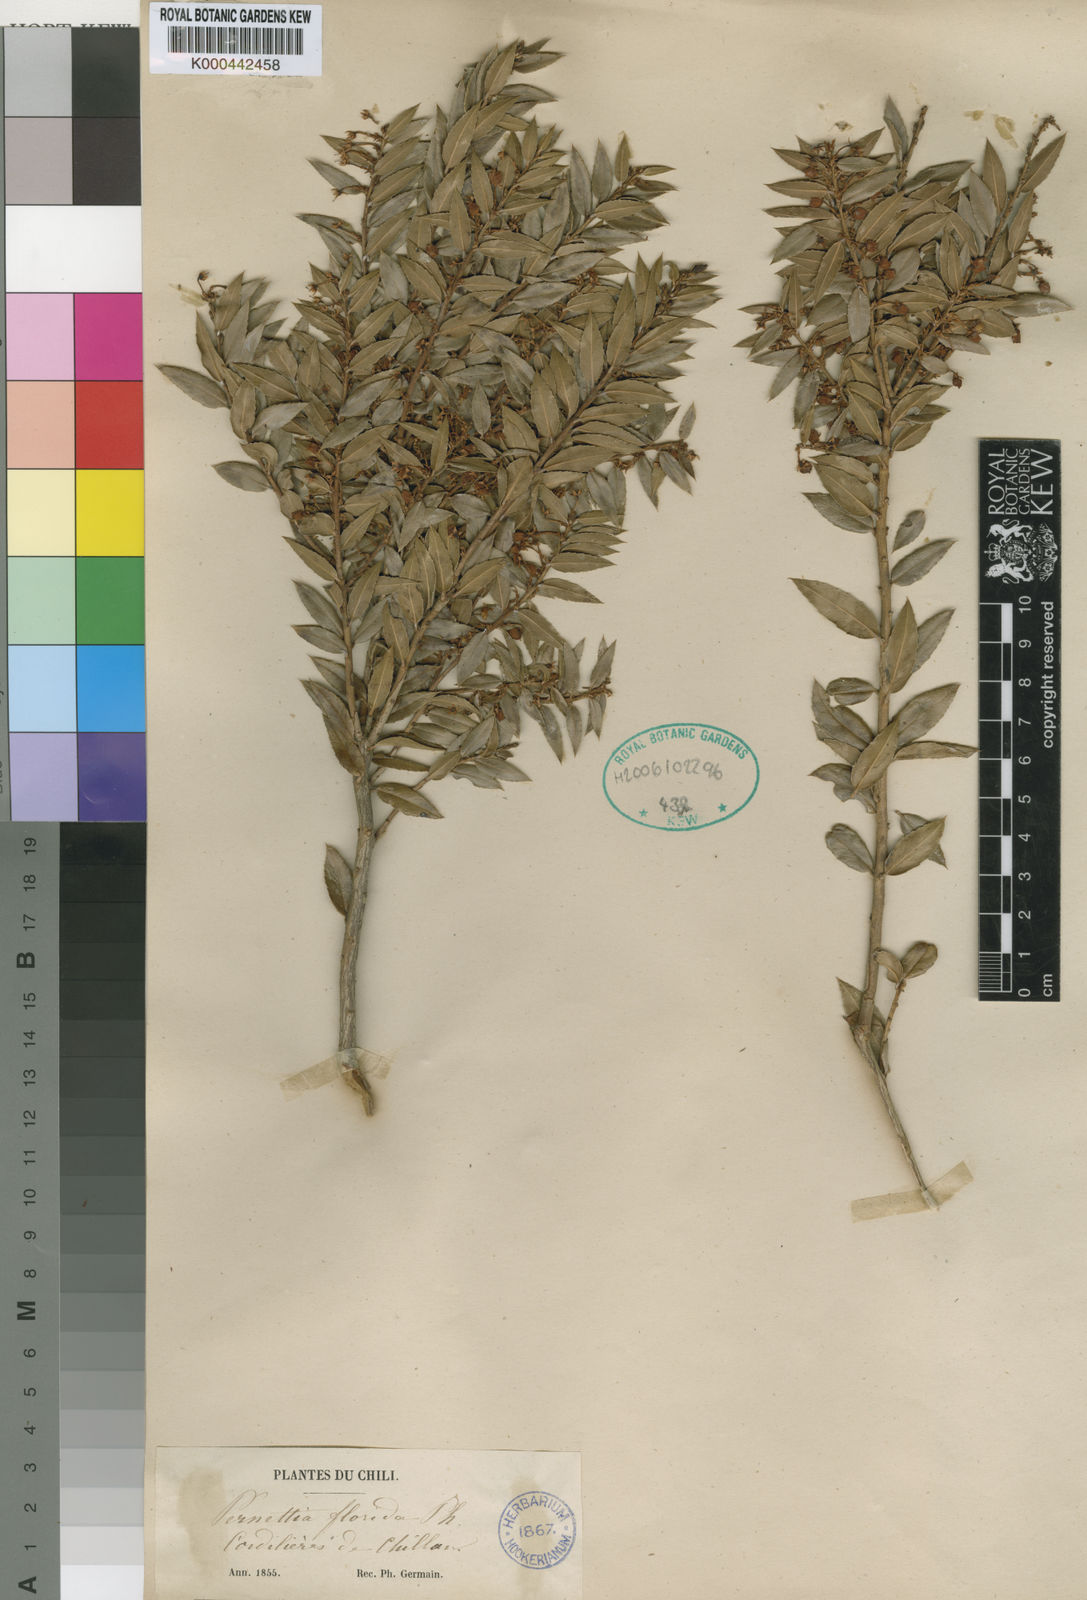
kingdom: Plantae
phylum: Tracheophyta
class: Magnoliopsida
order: Ericales
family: Ericaceae
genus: Gaultheria
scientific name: Gaultheria
